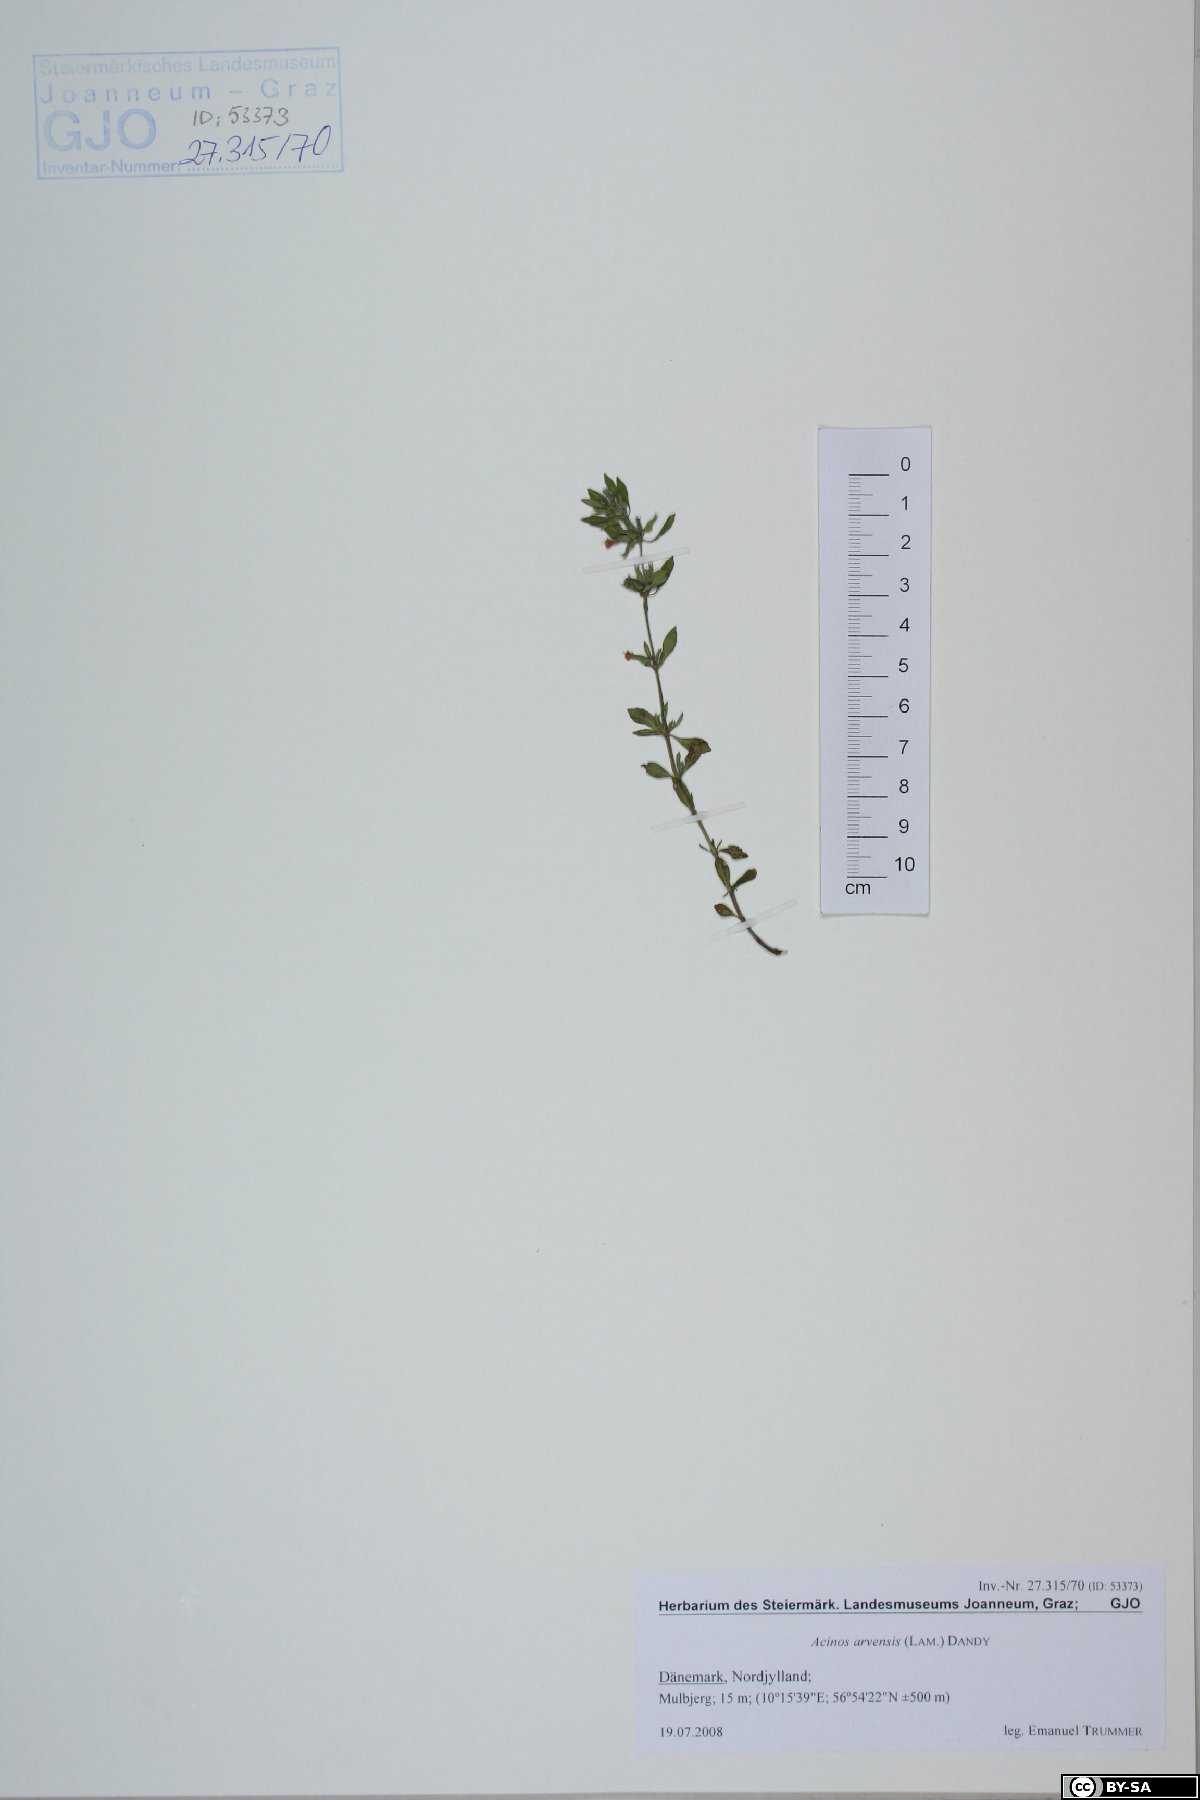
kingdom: Plantae
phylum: Tracheophyta
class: Magnoliopsida
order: Lamiales
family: Lamiaceae
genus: Clinopodium
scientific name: Clinopodium acinos
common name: Basil thyme
